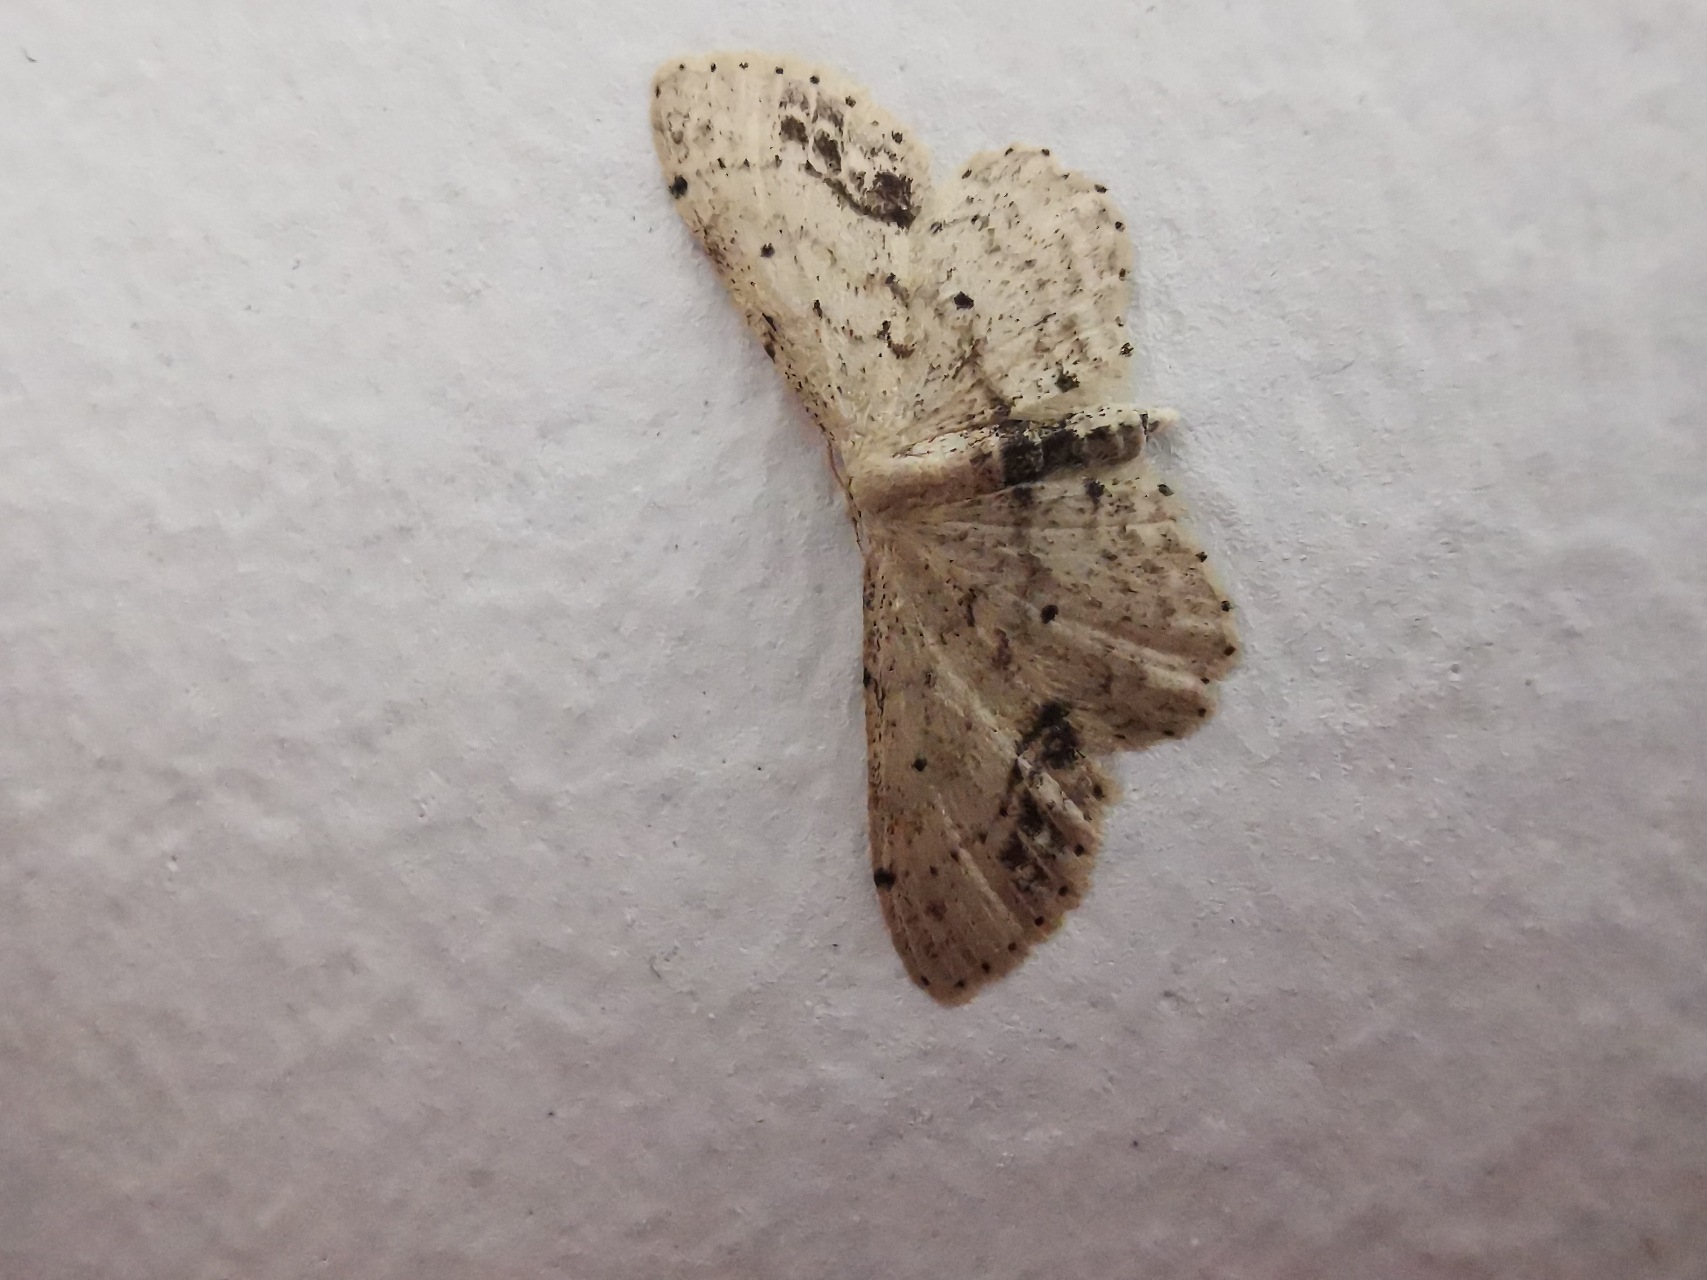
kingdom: Animalia
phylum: Arthropoda
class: Insecta
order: Lepidoptera
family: Geometridae
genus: Idaea
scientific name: Idaea dimidiata
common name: Sortplettet løvmåler
